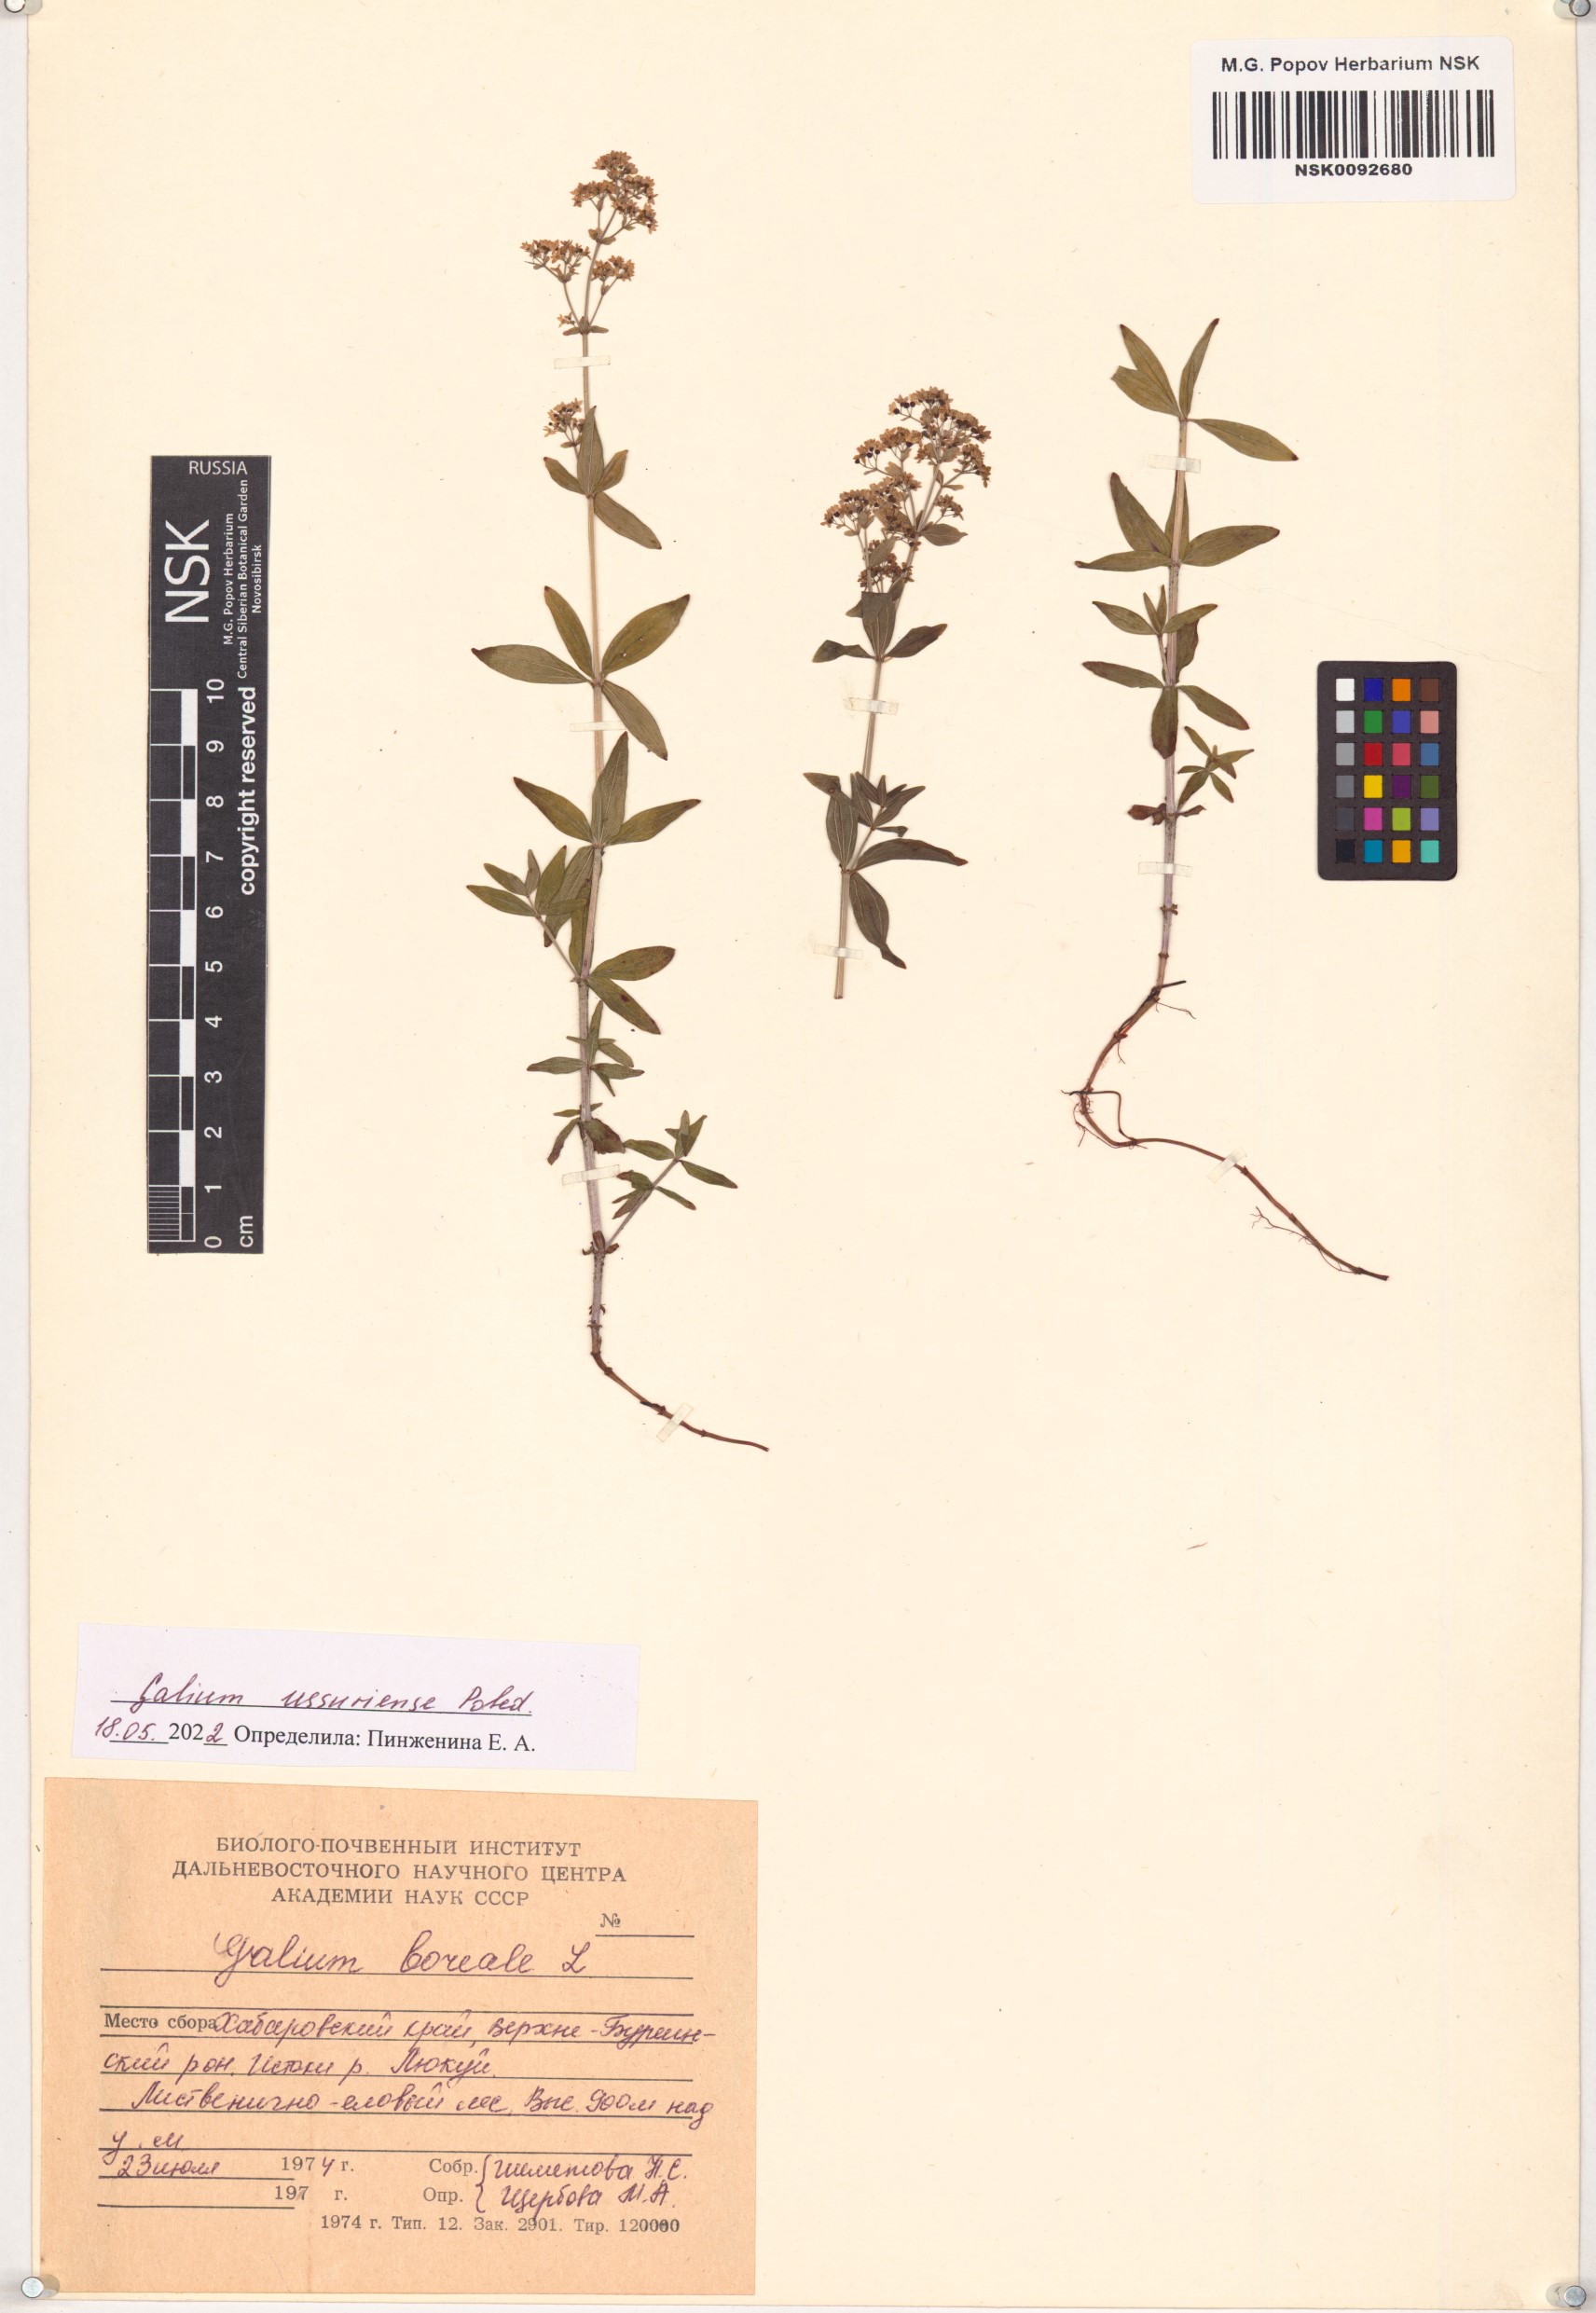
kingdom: Plantae
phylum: Tracheophyta
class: Magnoliopsida
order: Gentianales
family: Rubiaceae
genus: Galium
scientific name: Galium boreale
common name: Northern bedstraw
